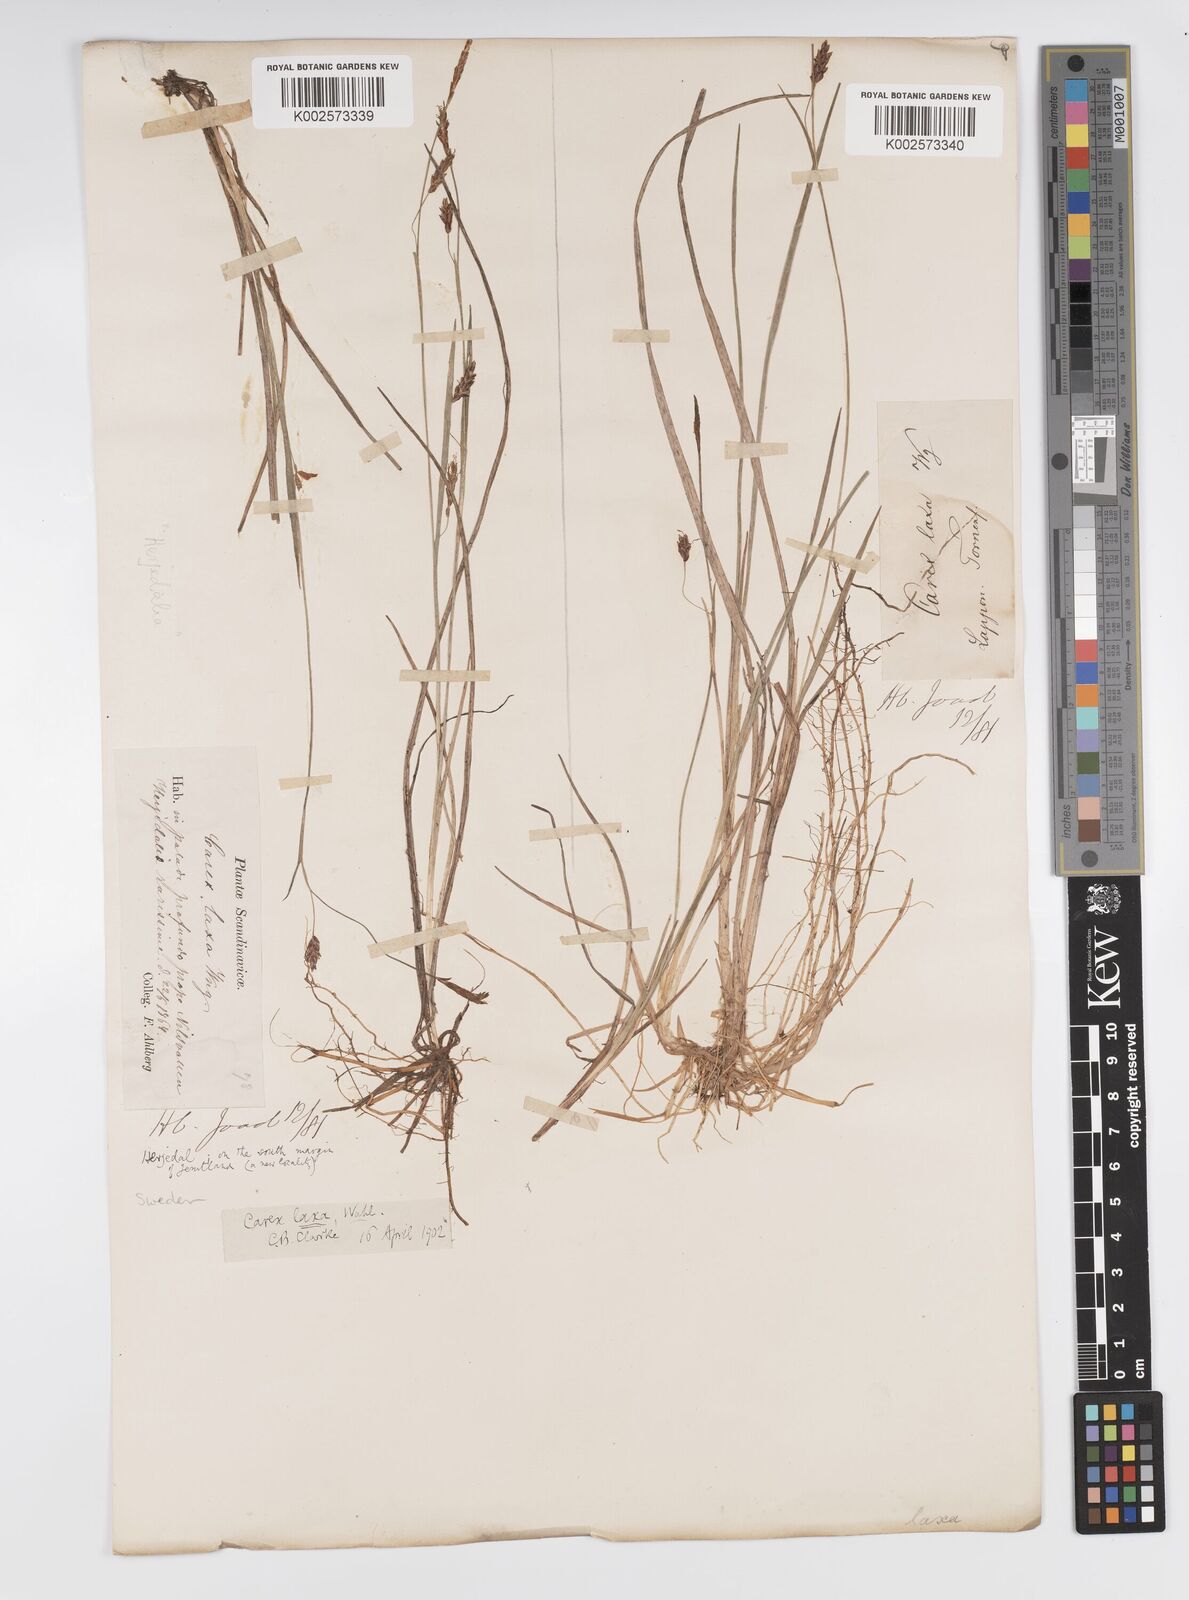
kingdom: Plantae
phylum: Tracheophyta
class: Liliopsida
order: Poales
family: Cyperaceae
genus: Carex
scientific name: Carex laxa
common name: Weak sedge
